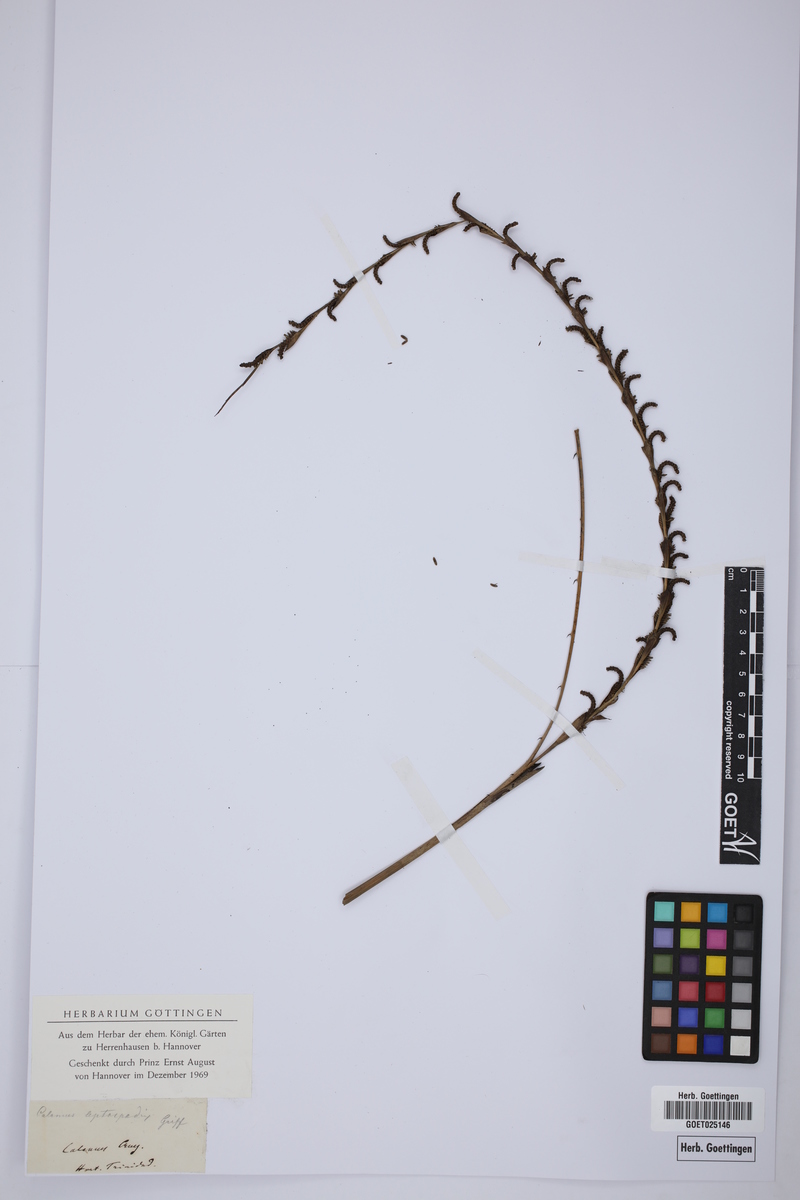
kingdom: Plantae
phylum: Tracheophyta
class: Liliopsida
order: Arecales
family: Arecaceae
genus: Calamus
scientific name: Calamus leptospadix
